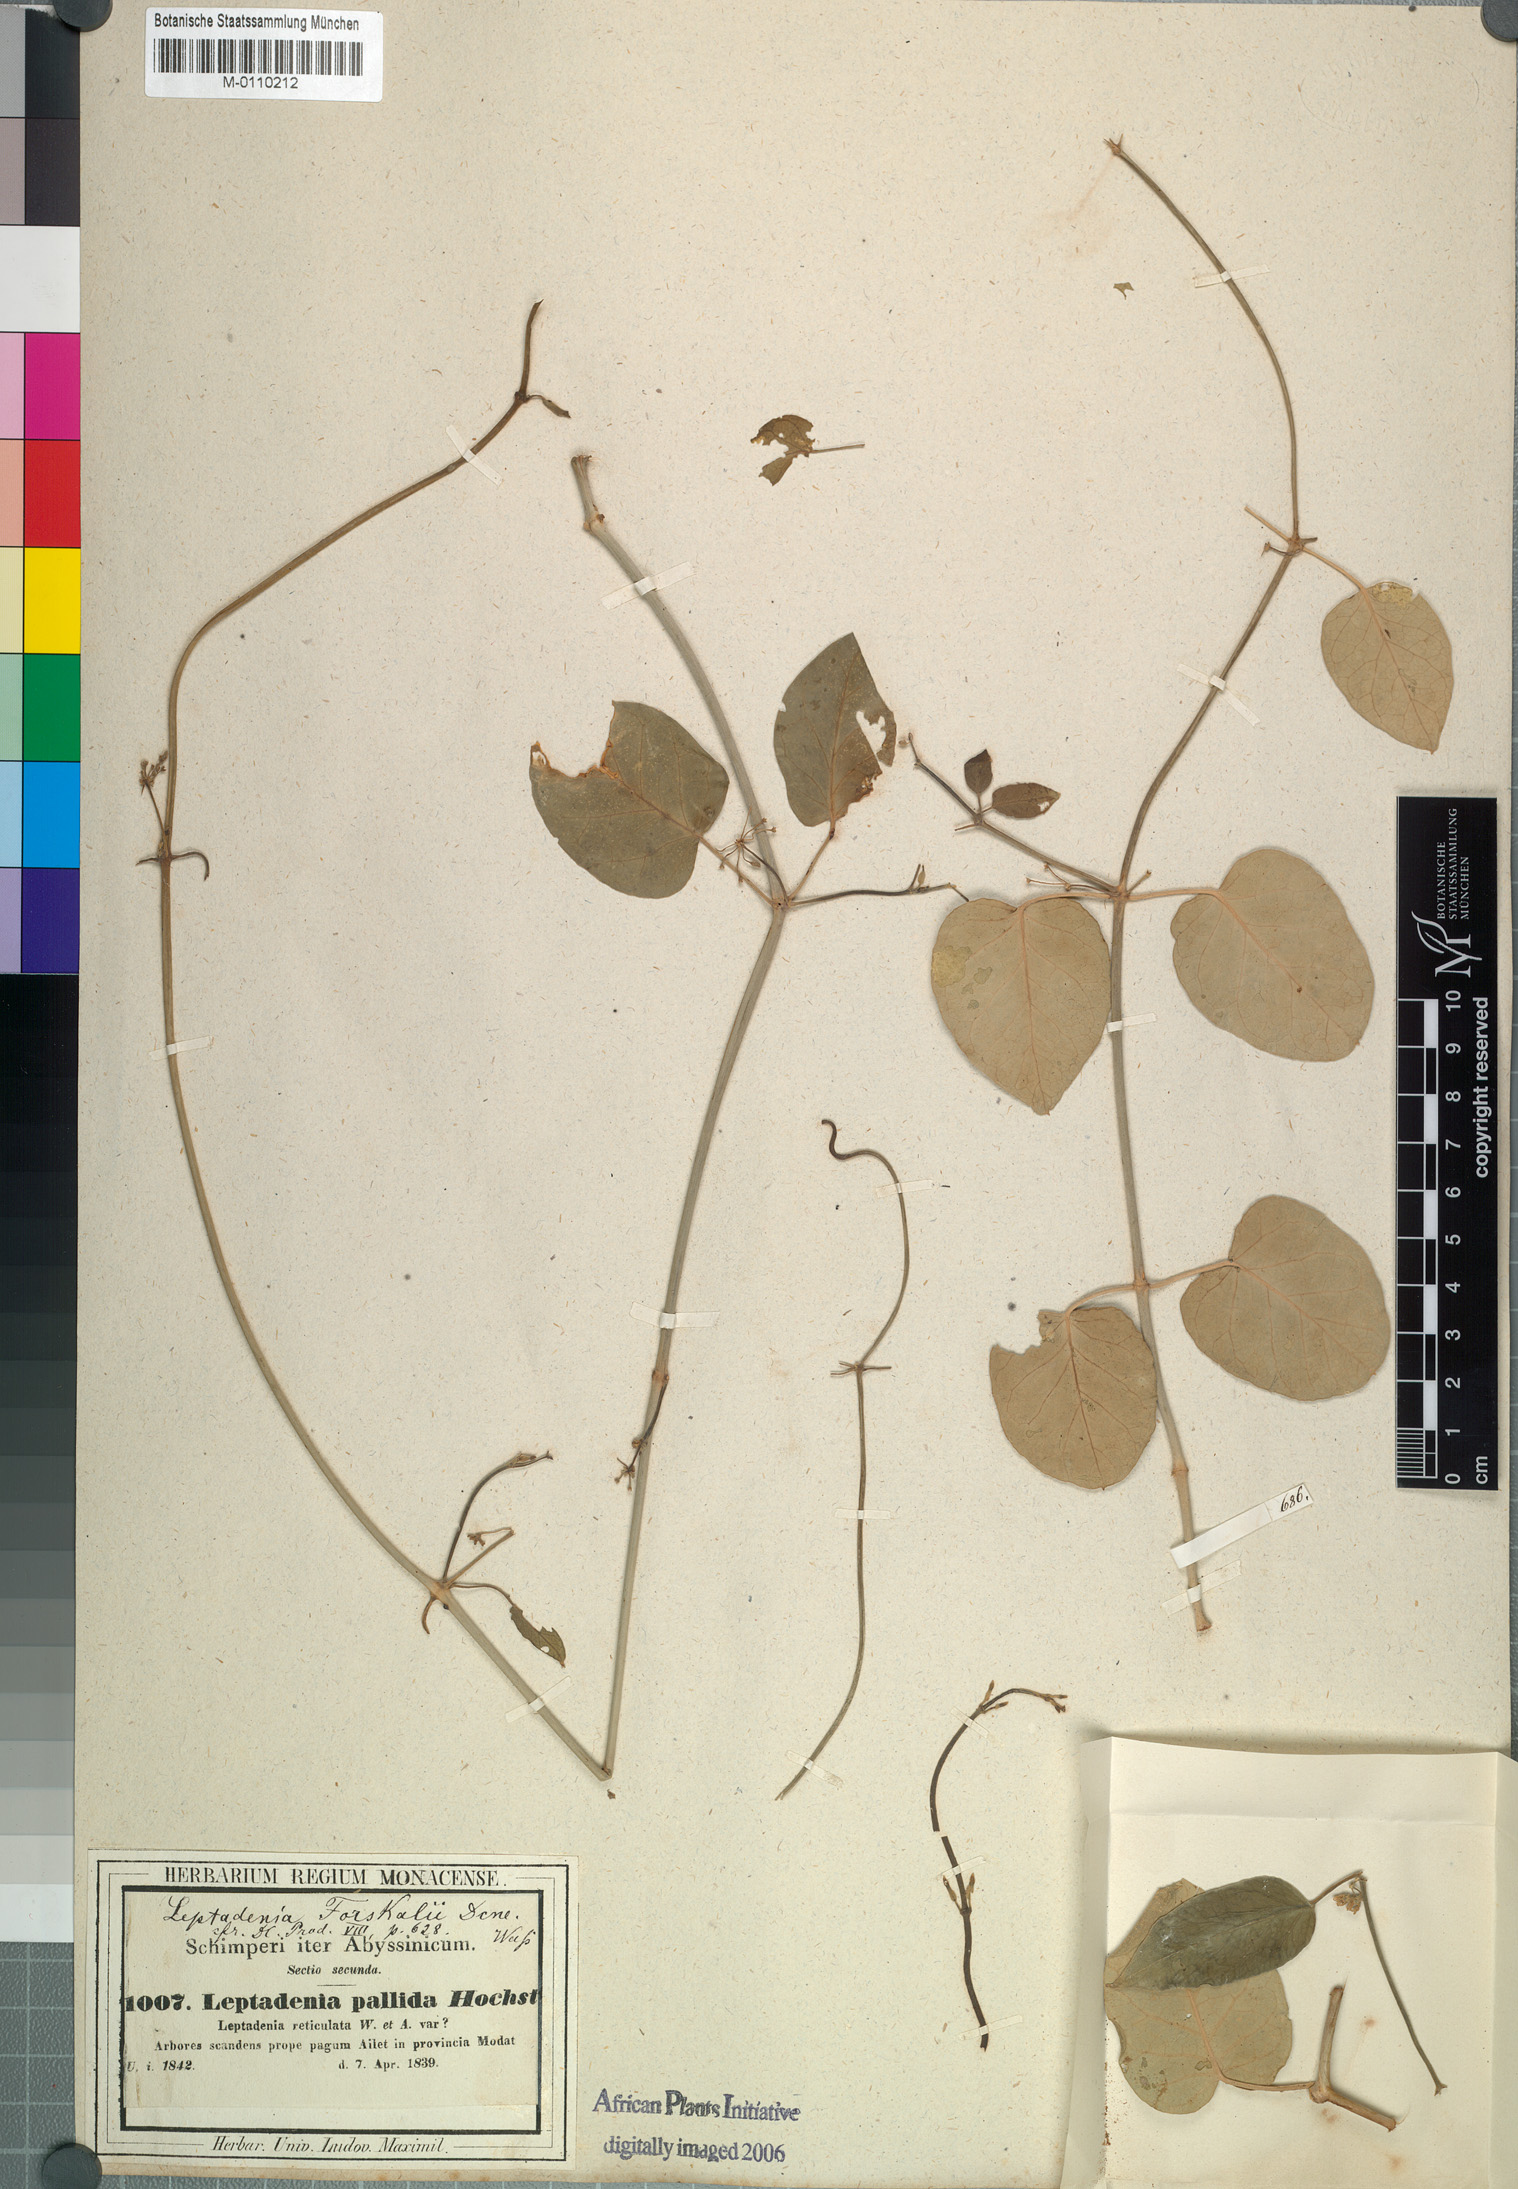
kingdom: Plantae
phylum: Tracheophyta
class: Magnoliopsida
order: Gentianales
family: Apocynaceae
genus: Leptadenia
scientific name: Leptadenia forsskalii
